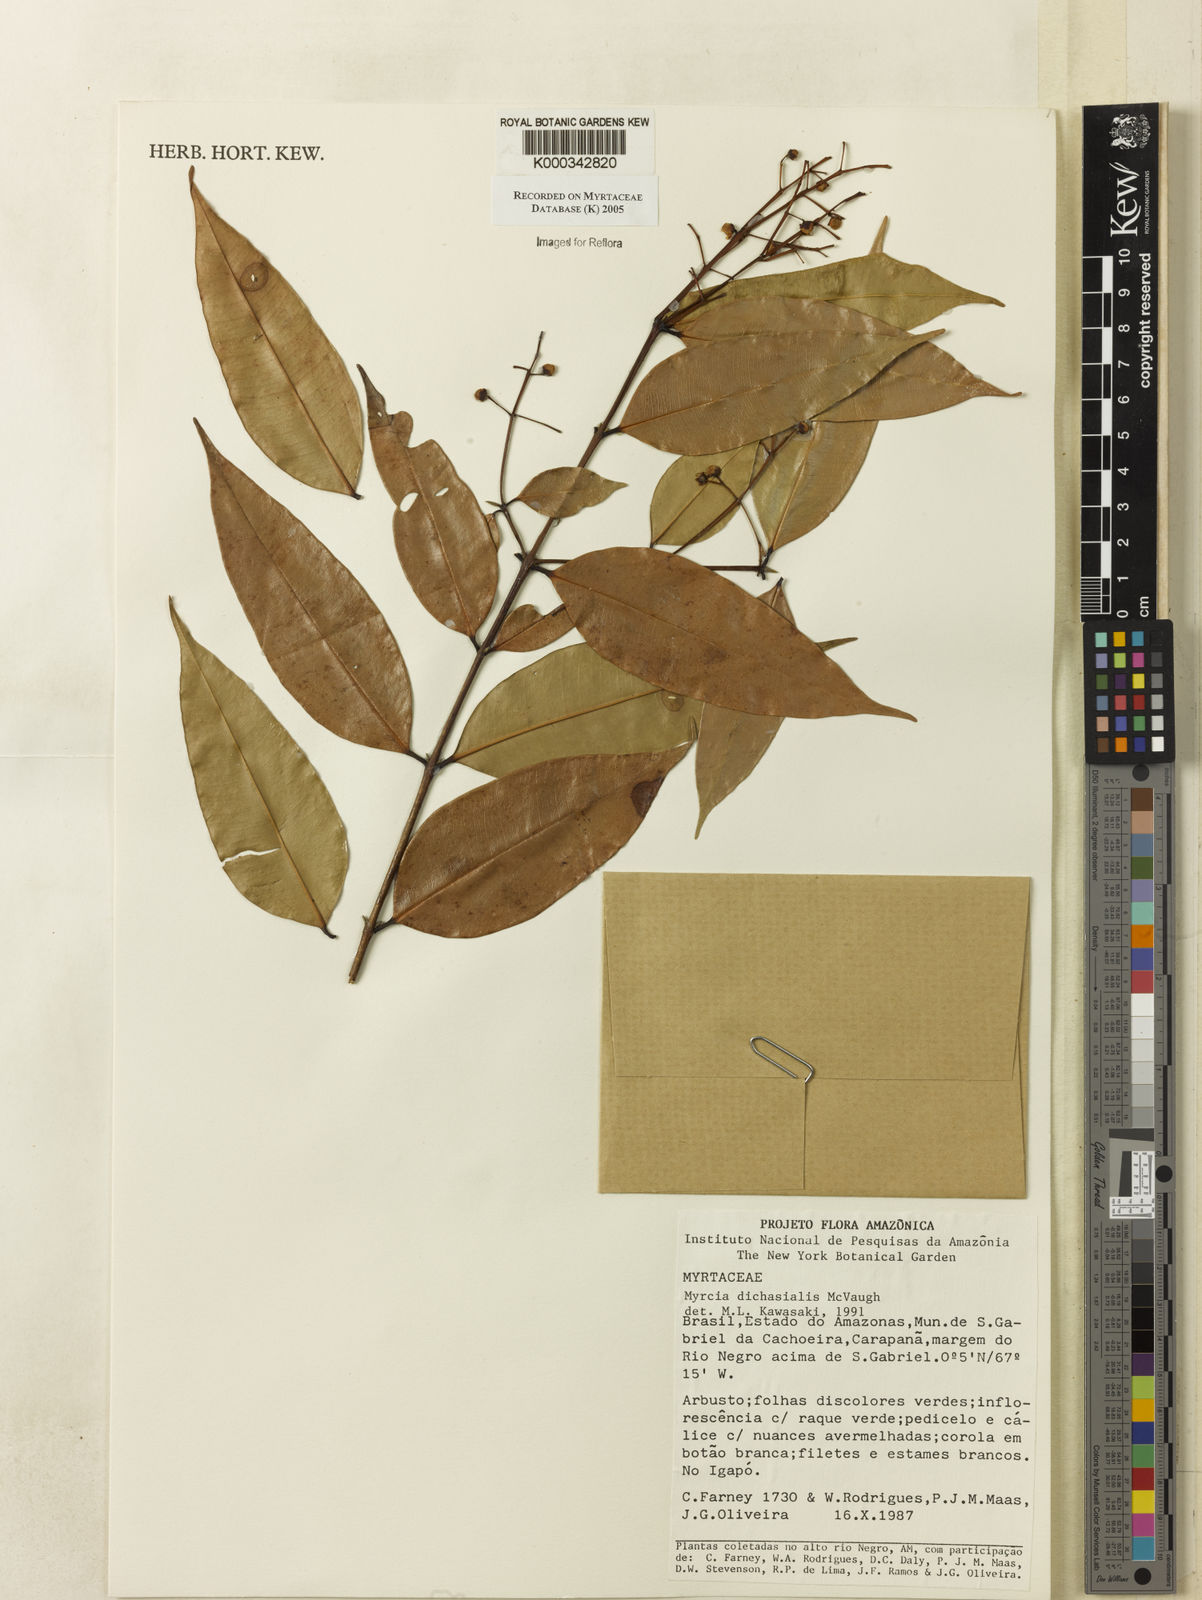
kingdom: Plantae
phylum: Tracheophyta
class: Magnoliopsida
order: Myrtales
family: Myrtaceae
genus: Myrcia
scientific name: Myrcia dichasialis
